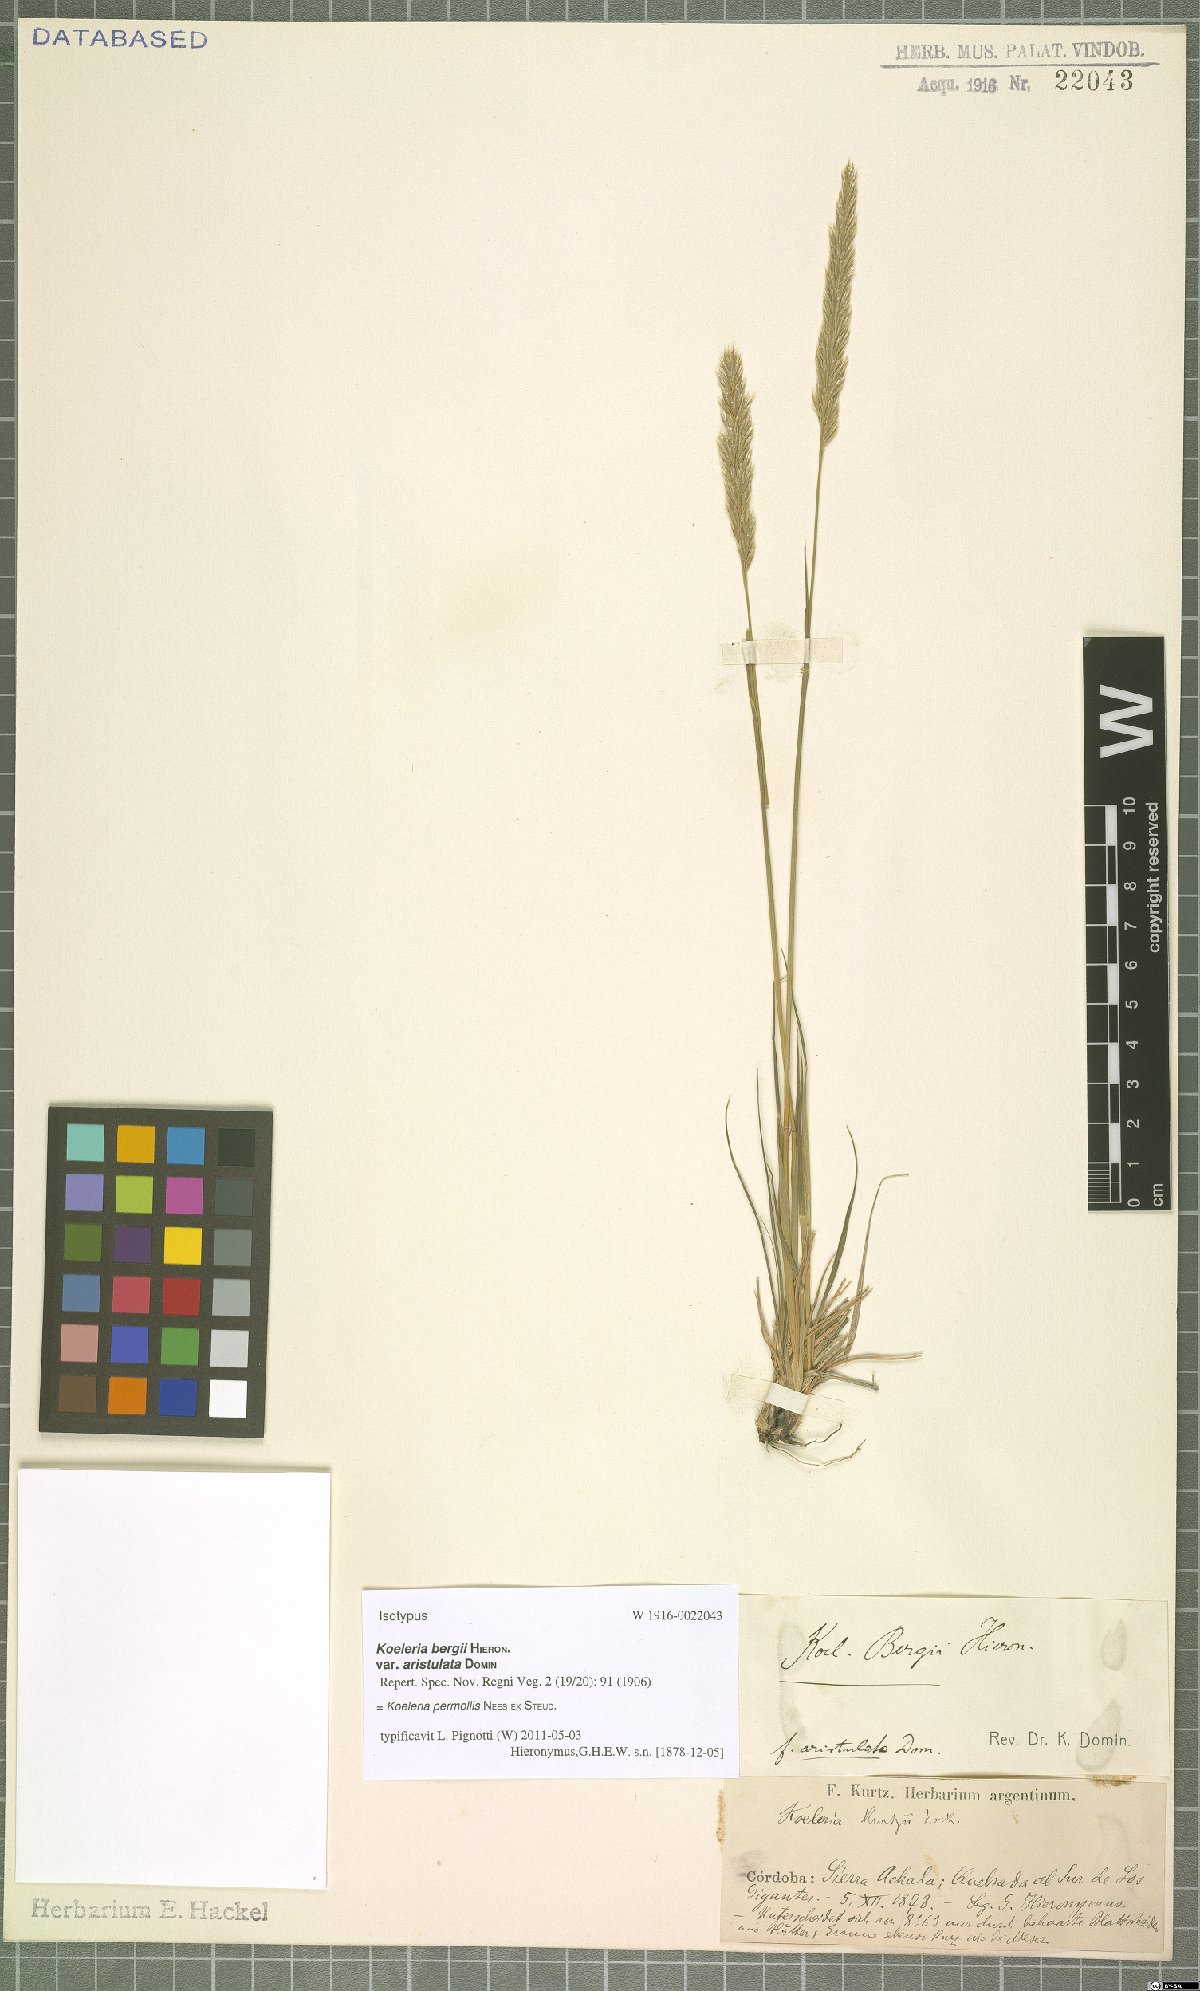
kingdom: Plantae
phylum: Tracheophyta
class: Liliopsida
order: Poales
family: Poaceae
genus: Koeleria
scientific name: Koeleria permollis
